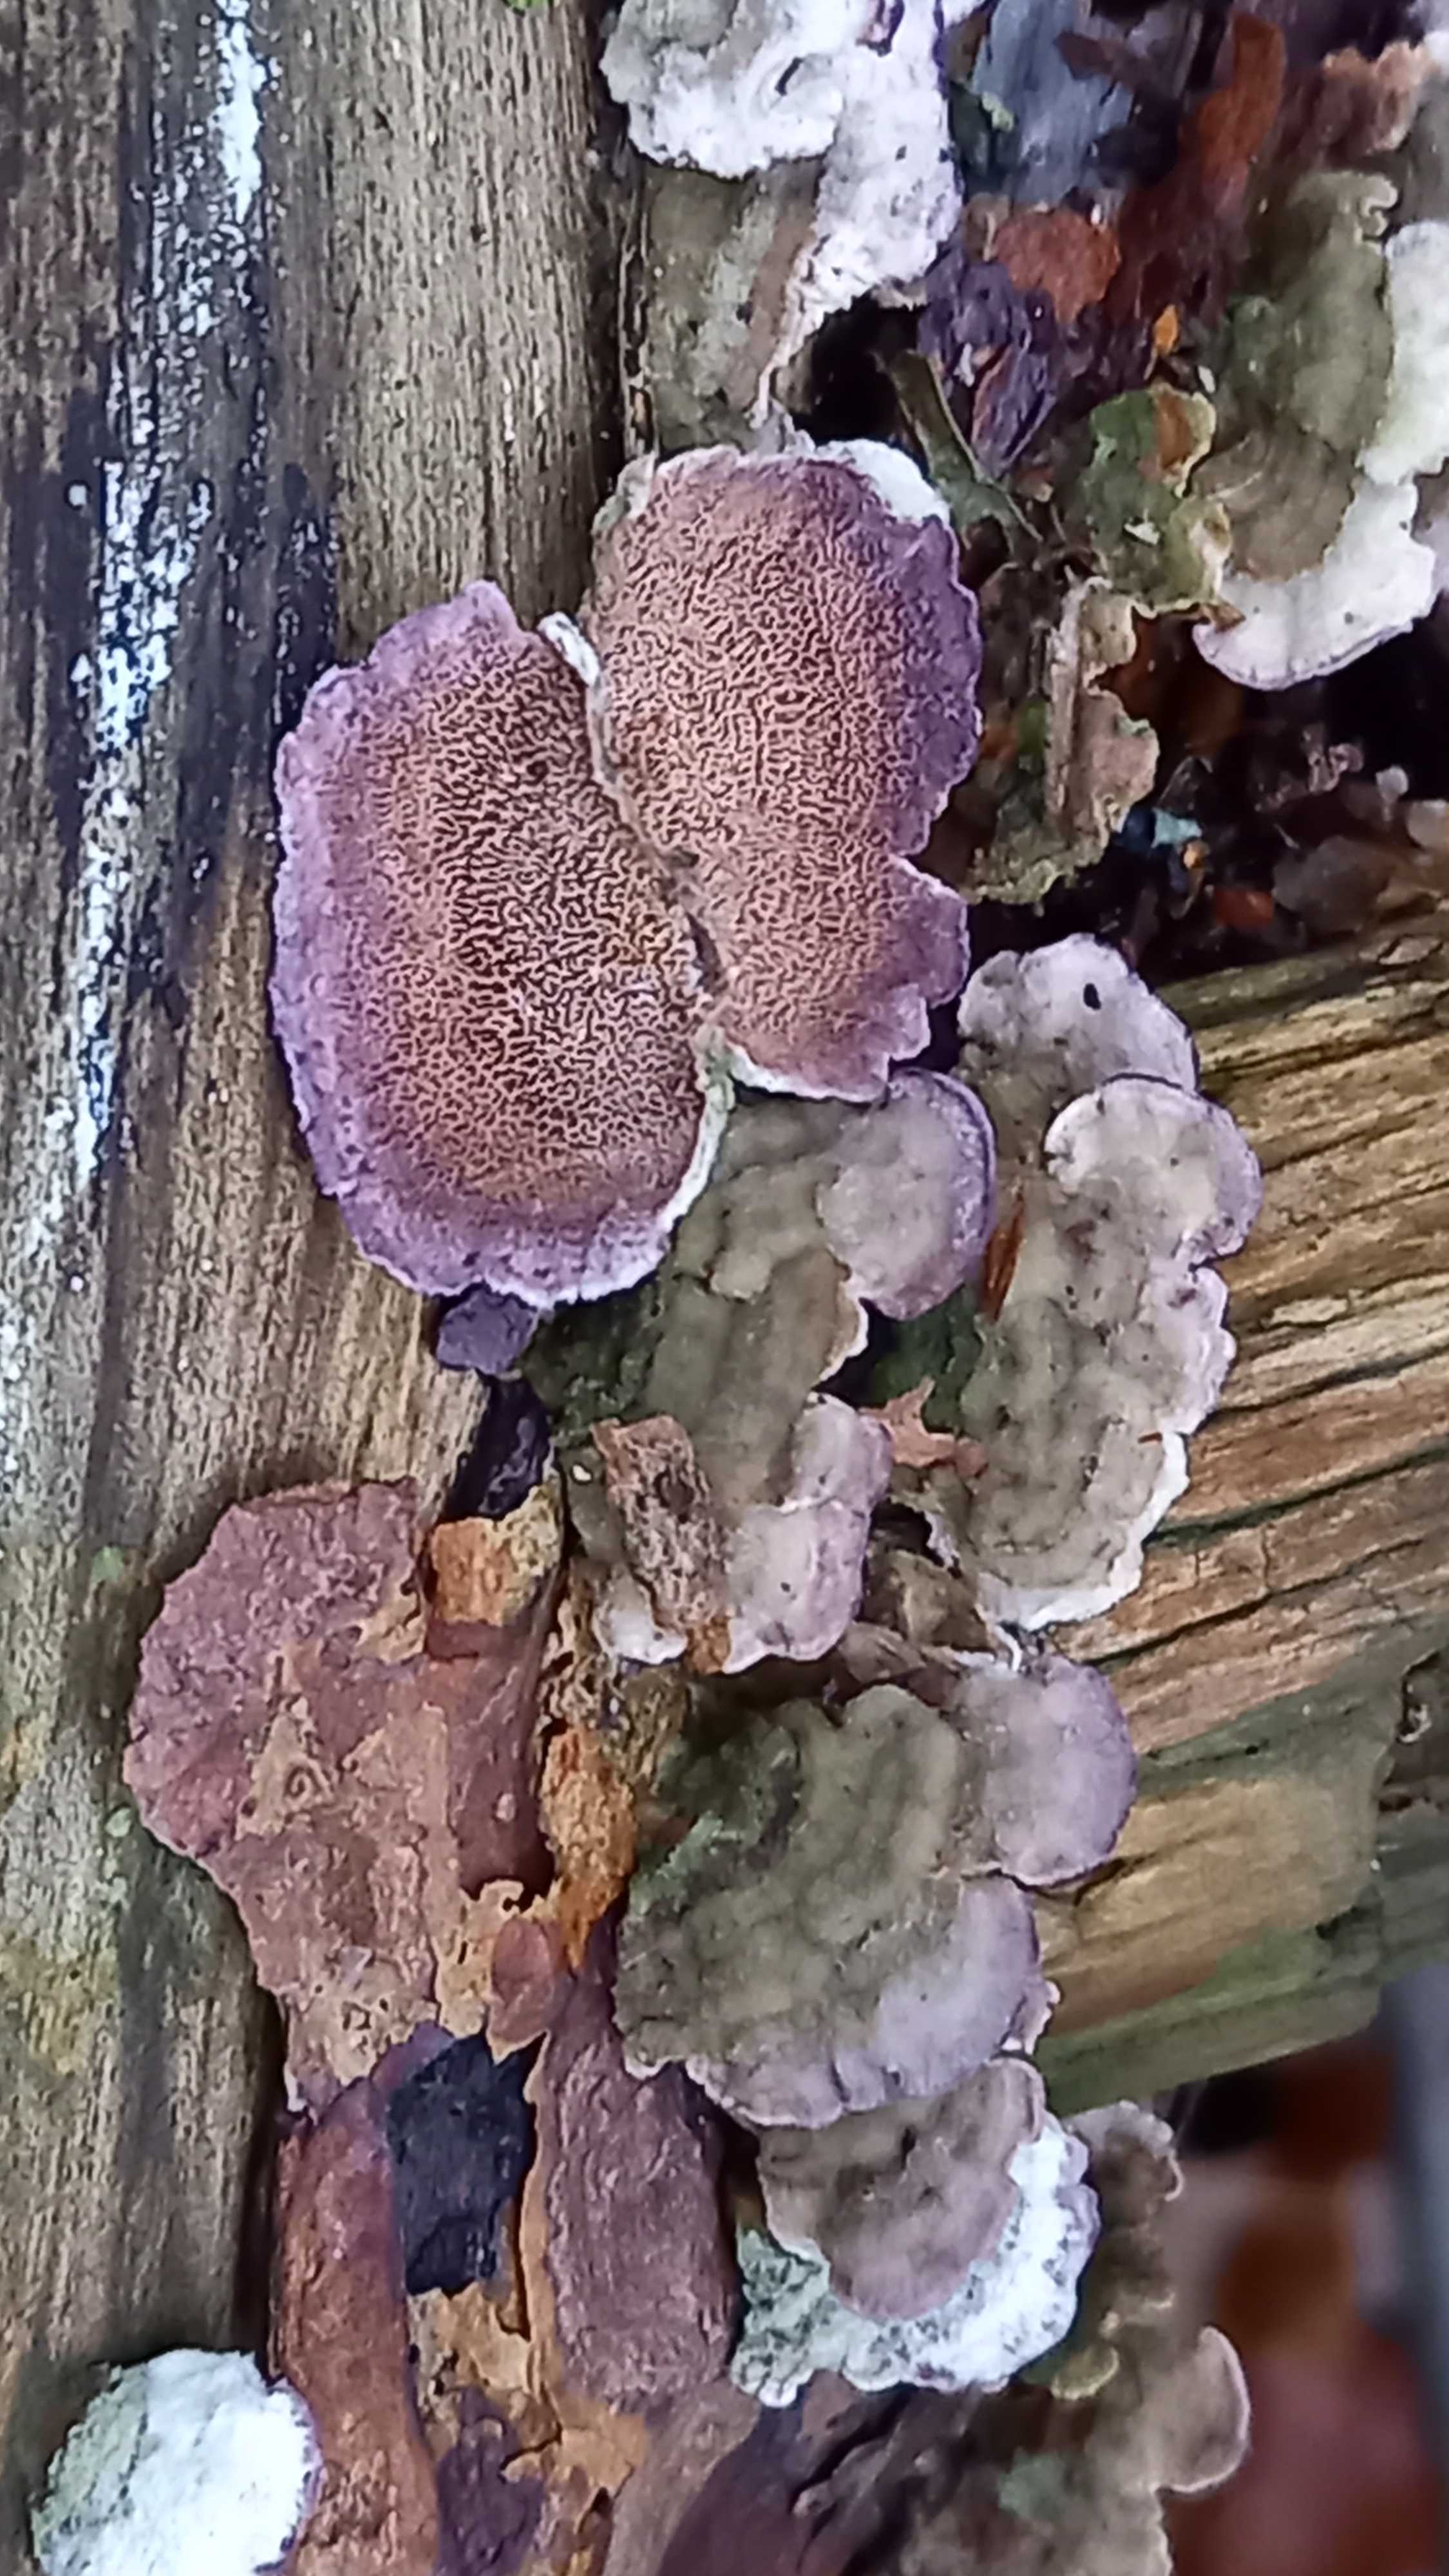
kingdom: Fungi
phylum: Basidiomycota
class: Agaricomycetes
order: Hymenochaetales
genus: Trichaptum
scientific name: Trichaptum abietinum
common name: almindelig violporesvamp
